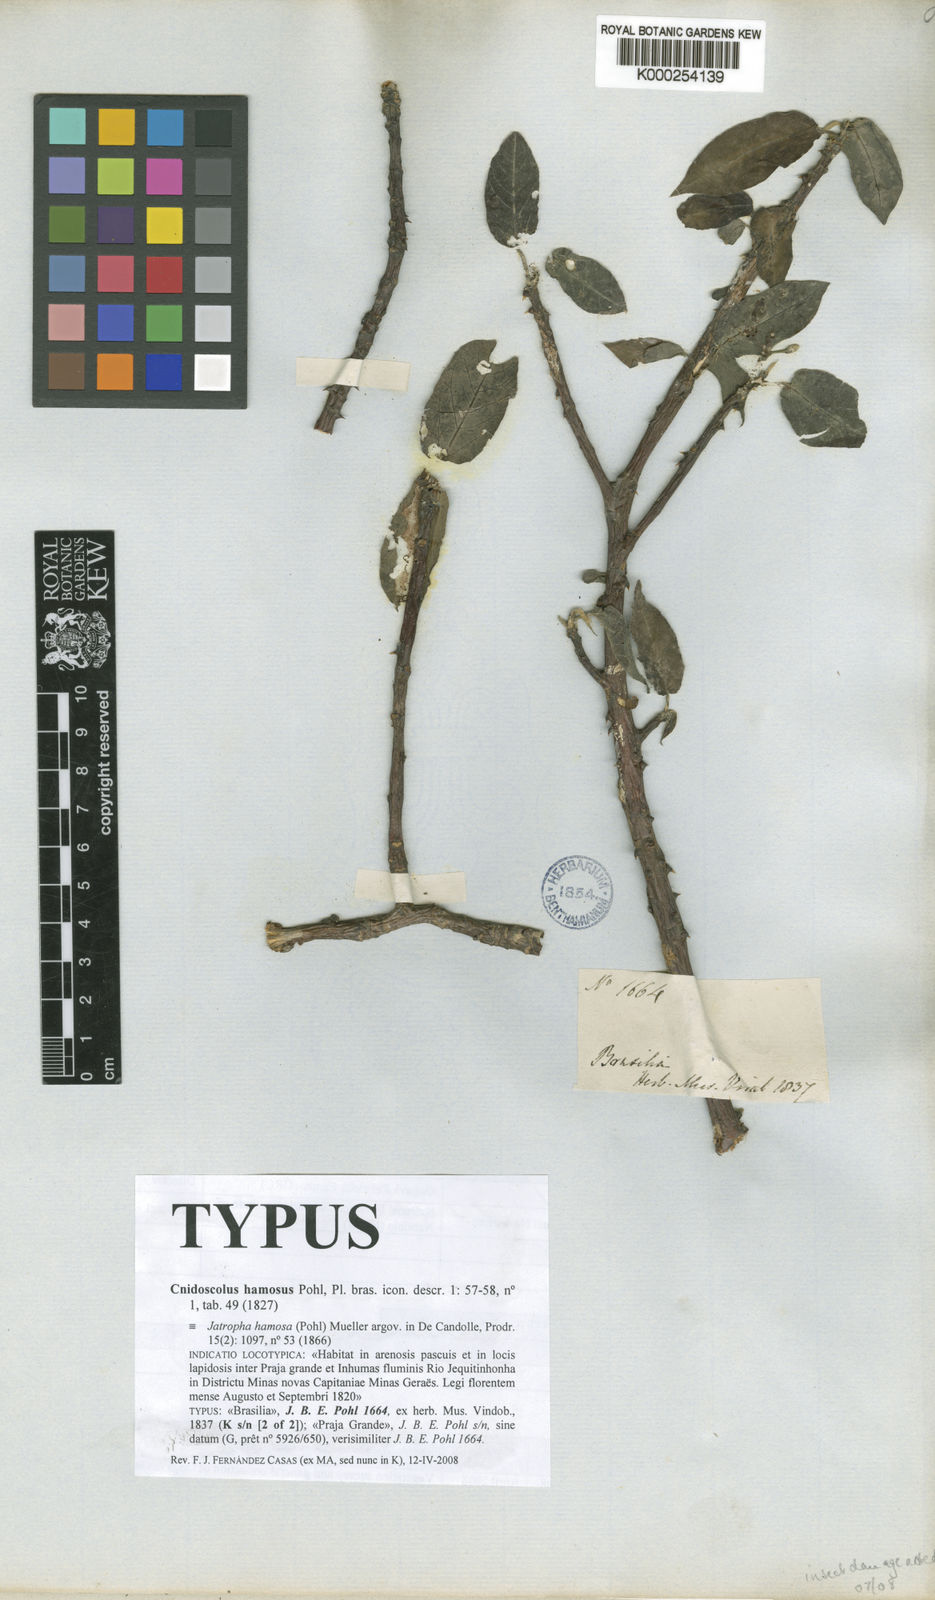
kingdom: Plantae
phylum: Tracheophyta
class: Magnoliopsida
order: Malpighiales
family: Euphorbiaceae
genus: Cnidoscolus
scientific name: Cnidoscolus hamosus
